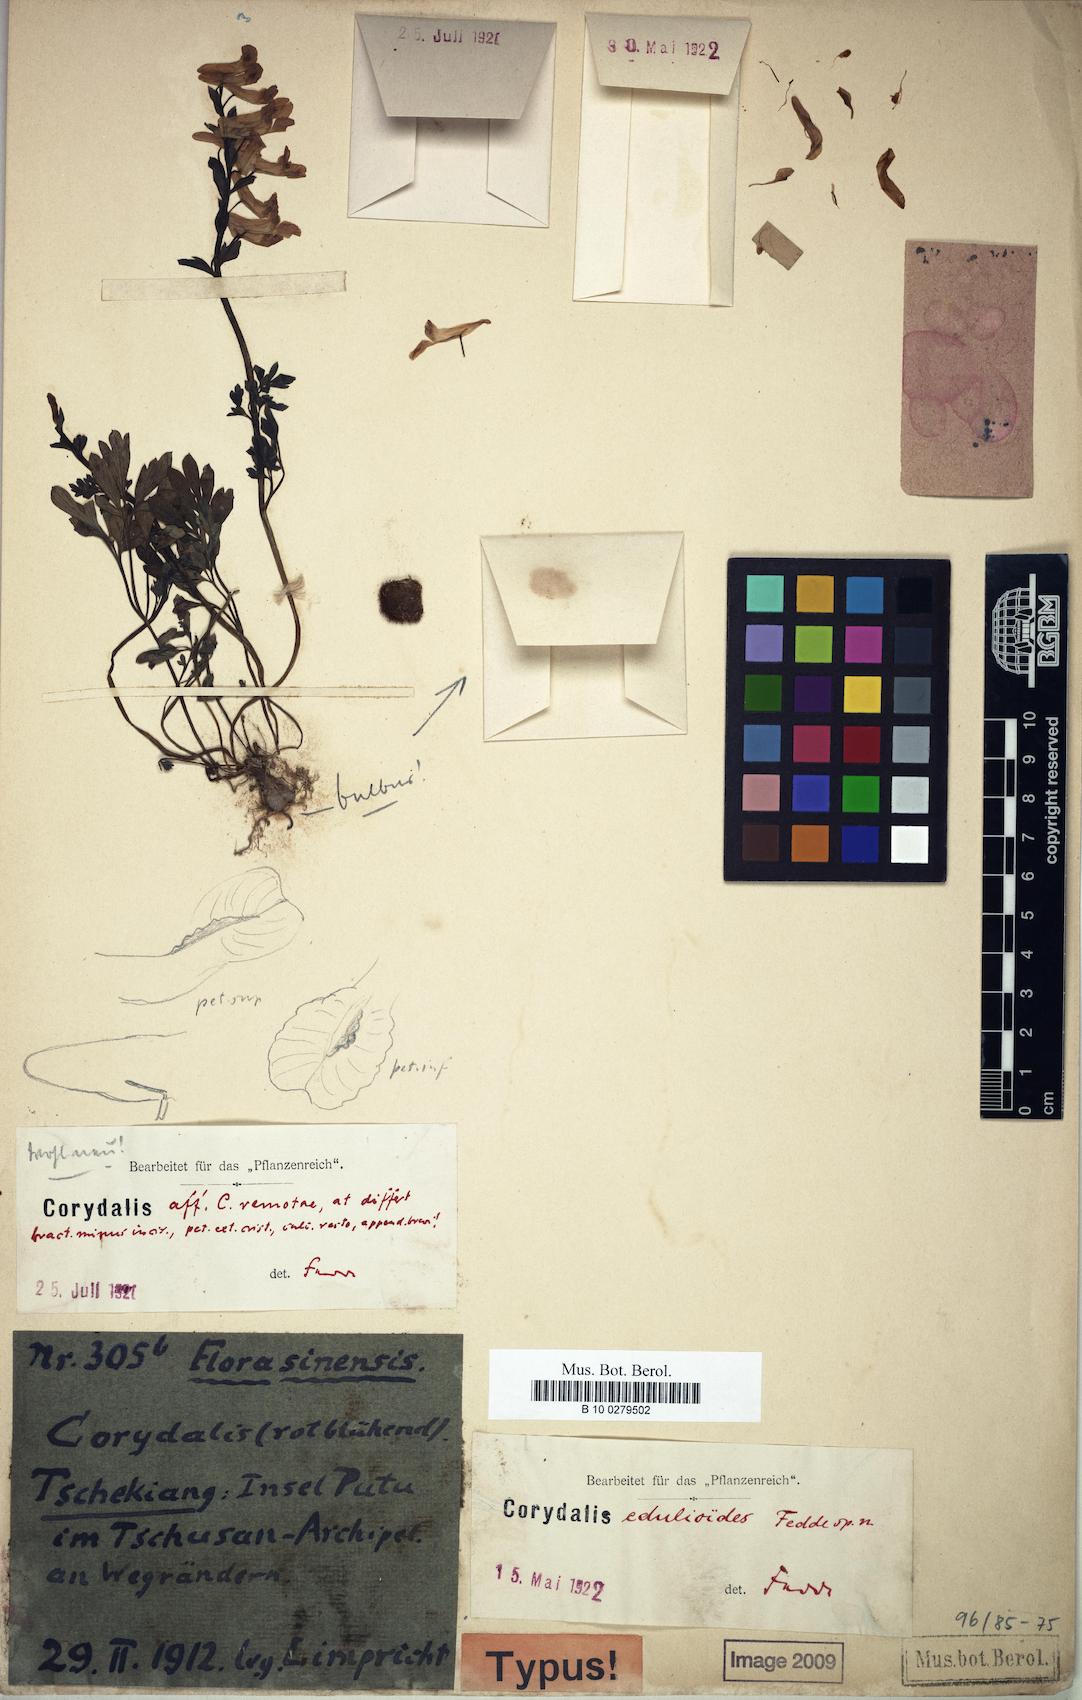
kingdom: Plantae
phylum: Tracheophyta
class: Magnoliopsida
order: Ranunculales
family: Papaveraceae
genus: Corydalis
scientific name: Corydalis decumbens
